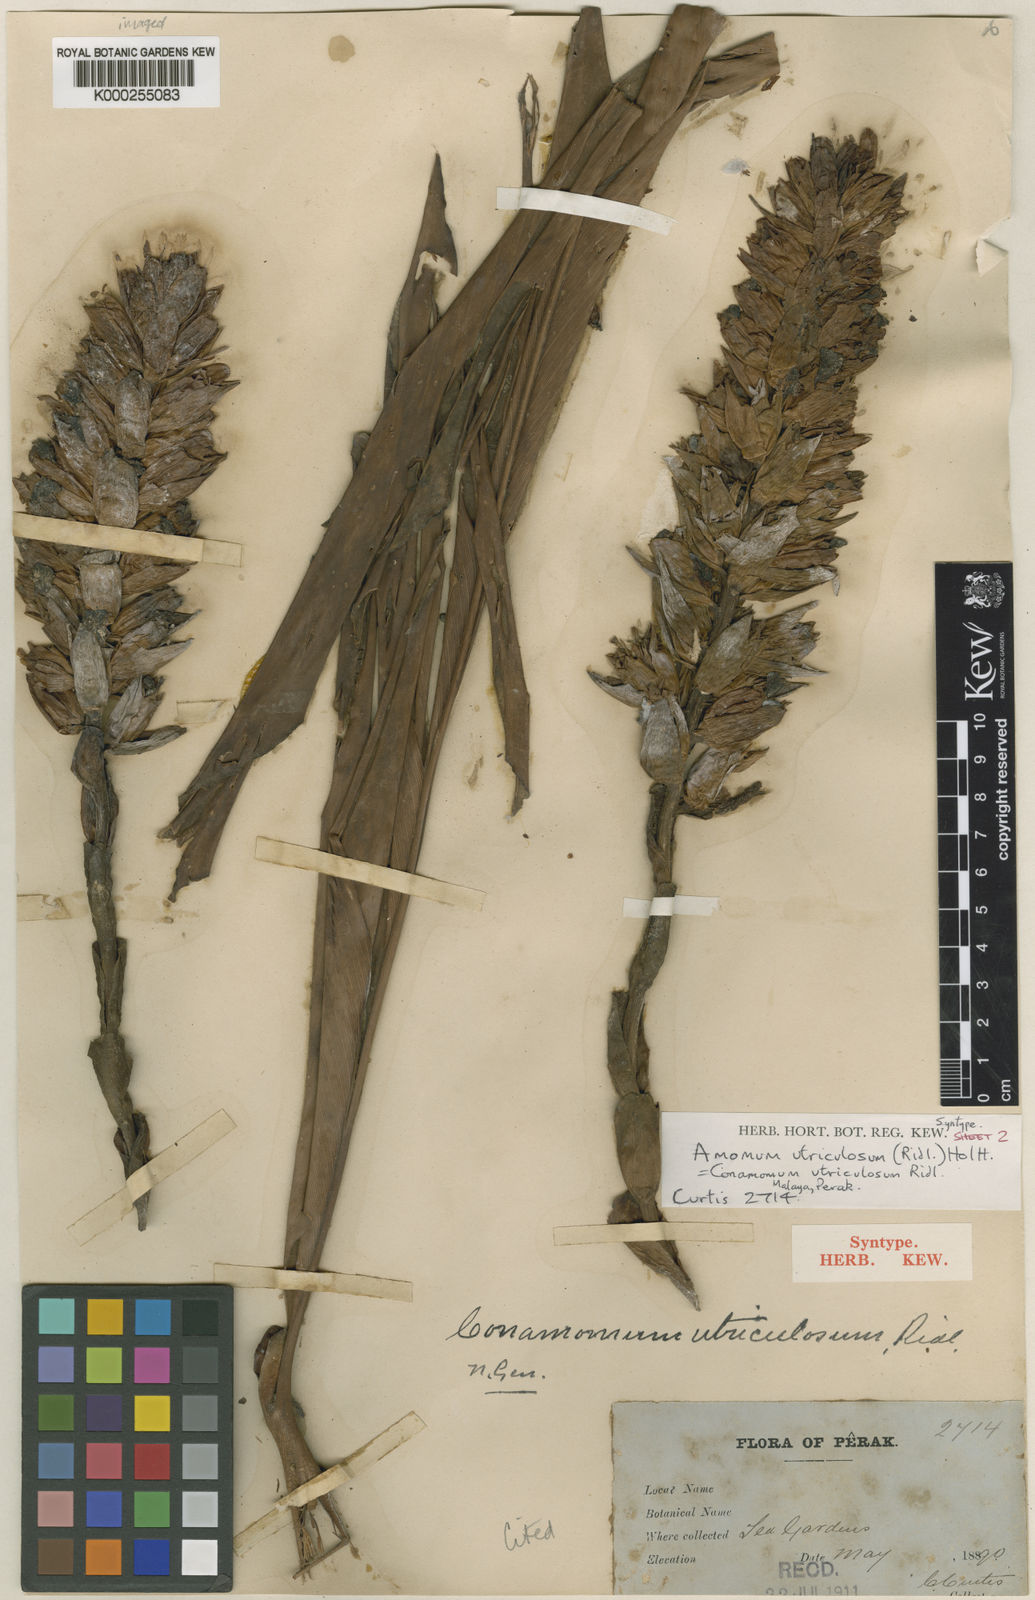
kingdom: Plantae
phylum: Tracheophyta
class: Liliopsida
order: Zingiberales
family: Zingiberaceae
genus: Conamomum
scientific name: Conamomum utriculosum
